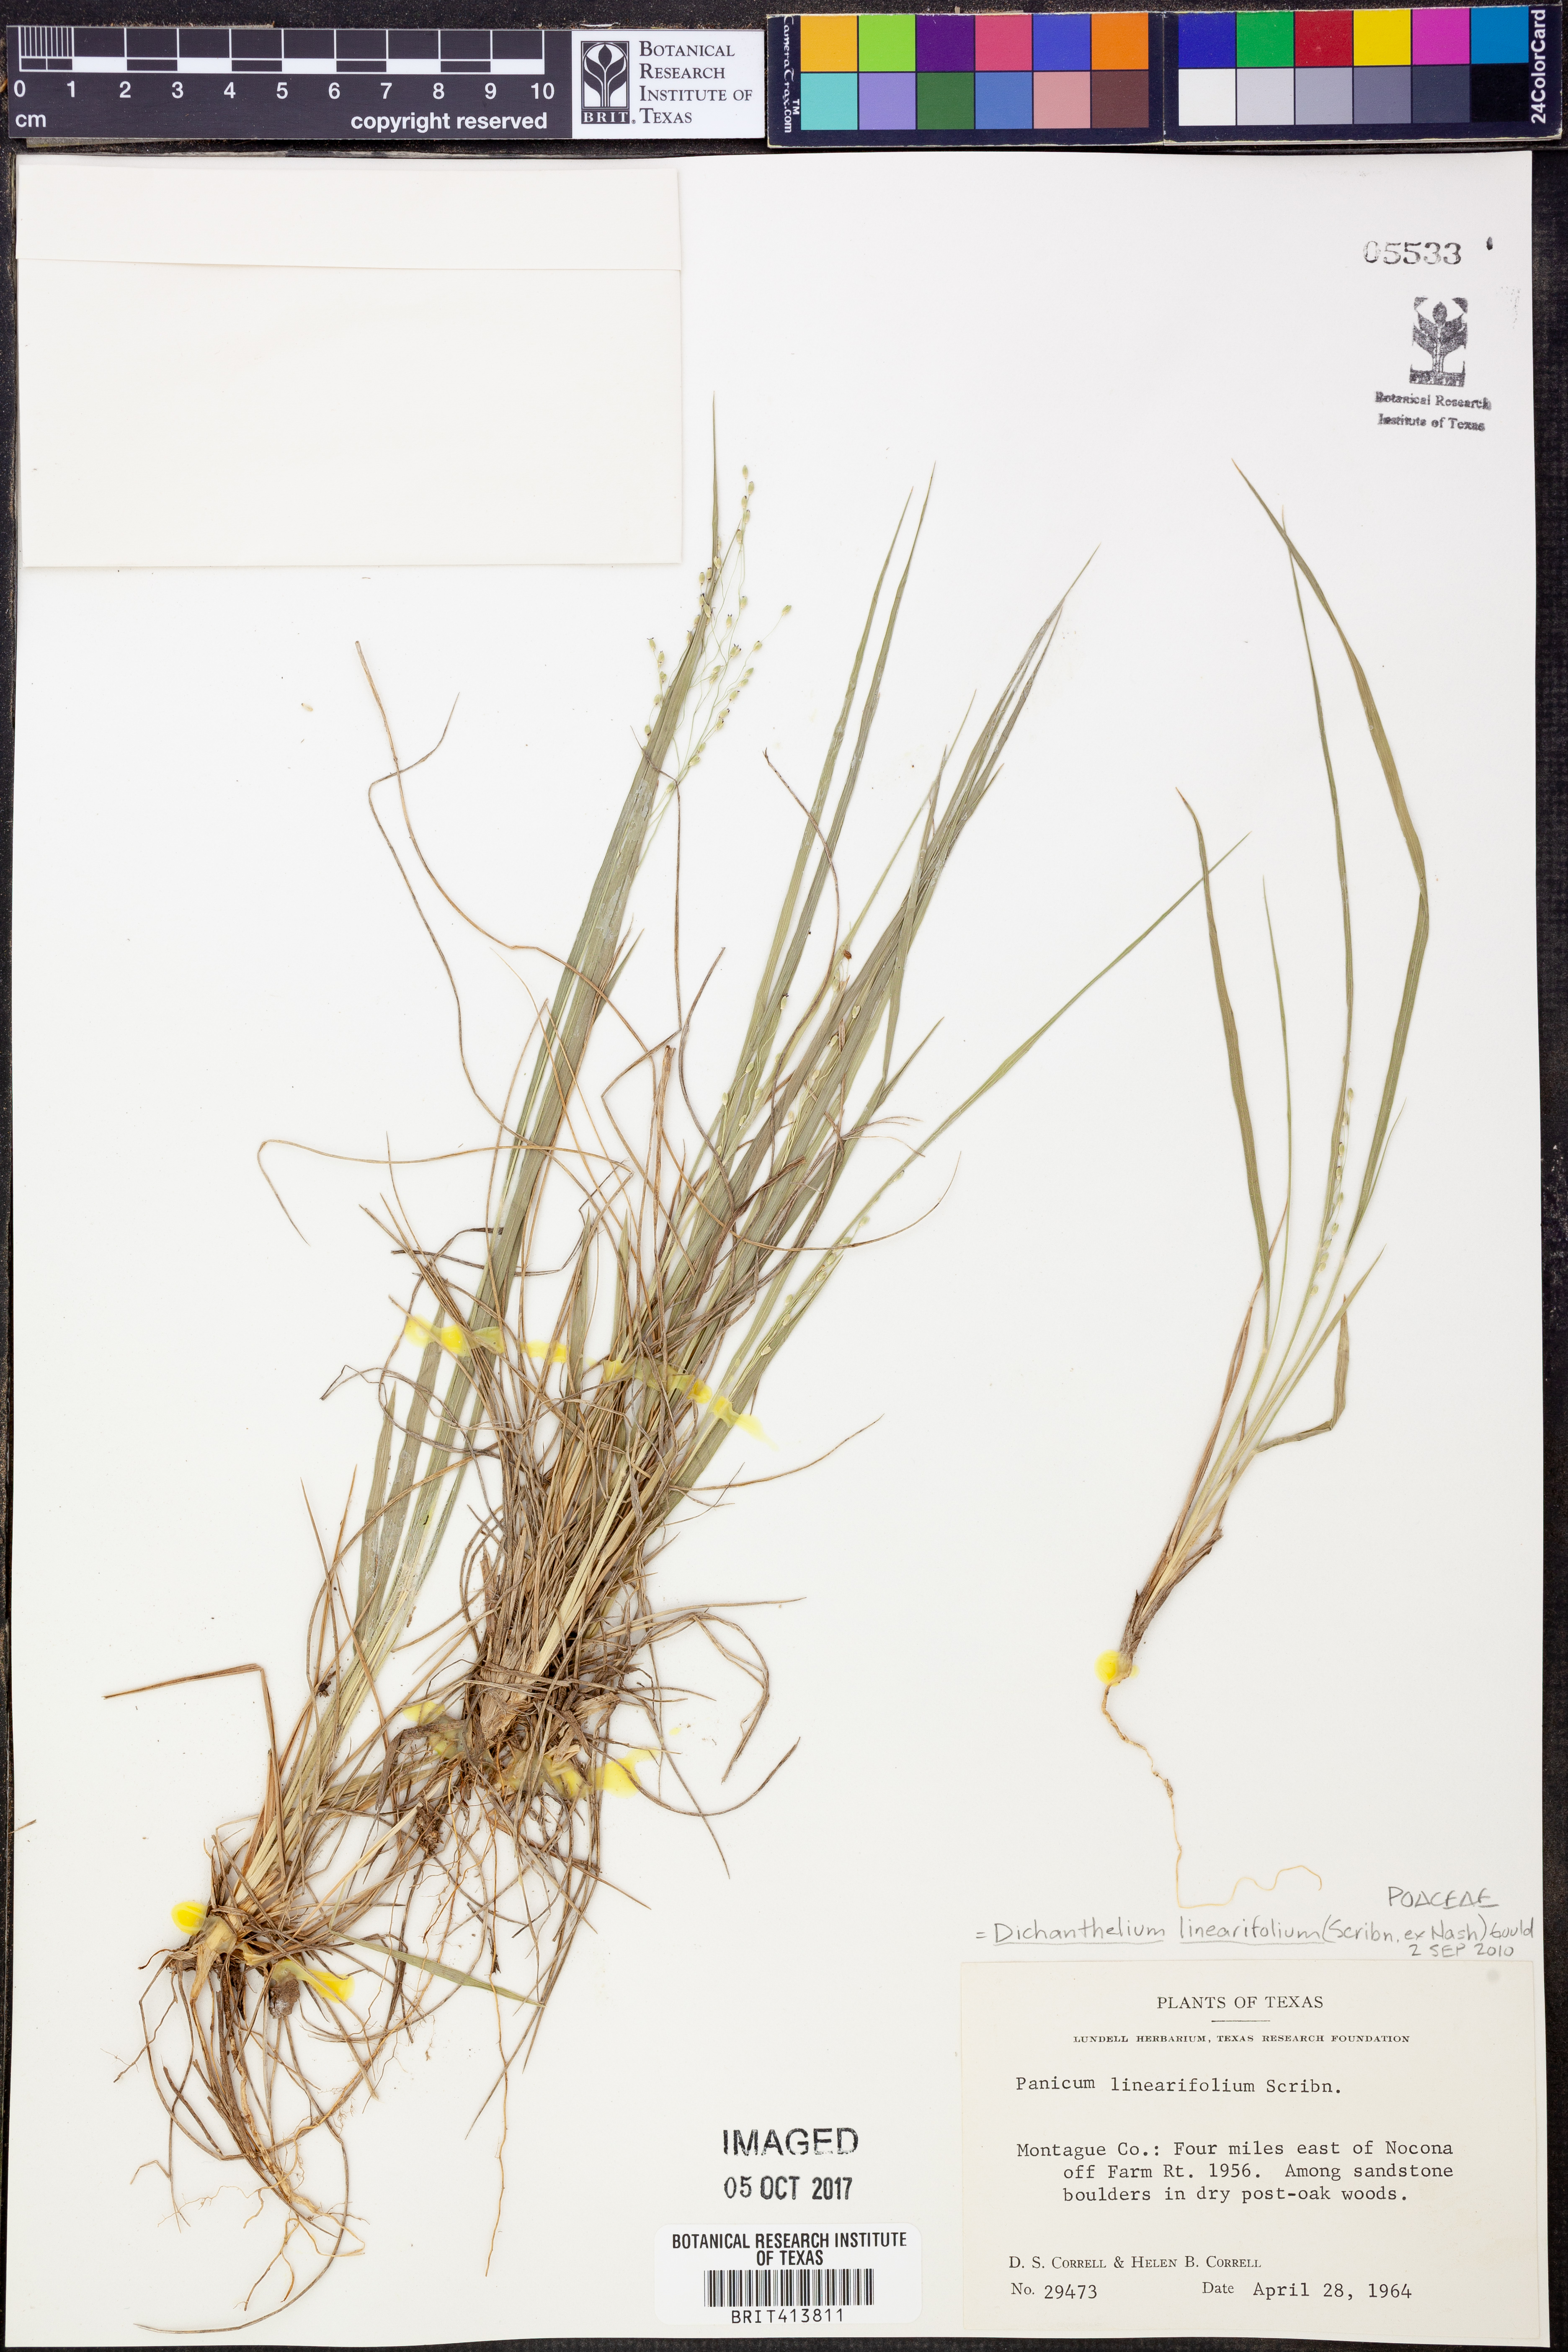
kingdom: Plantae
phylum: Tracheophyta
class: Liliopsida
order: Poales
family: Poaceae
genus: Dichanthelium
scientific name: Dichanthelium linearifolium
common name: Linear-leaved panicgrass
